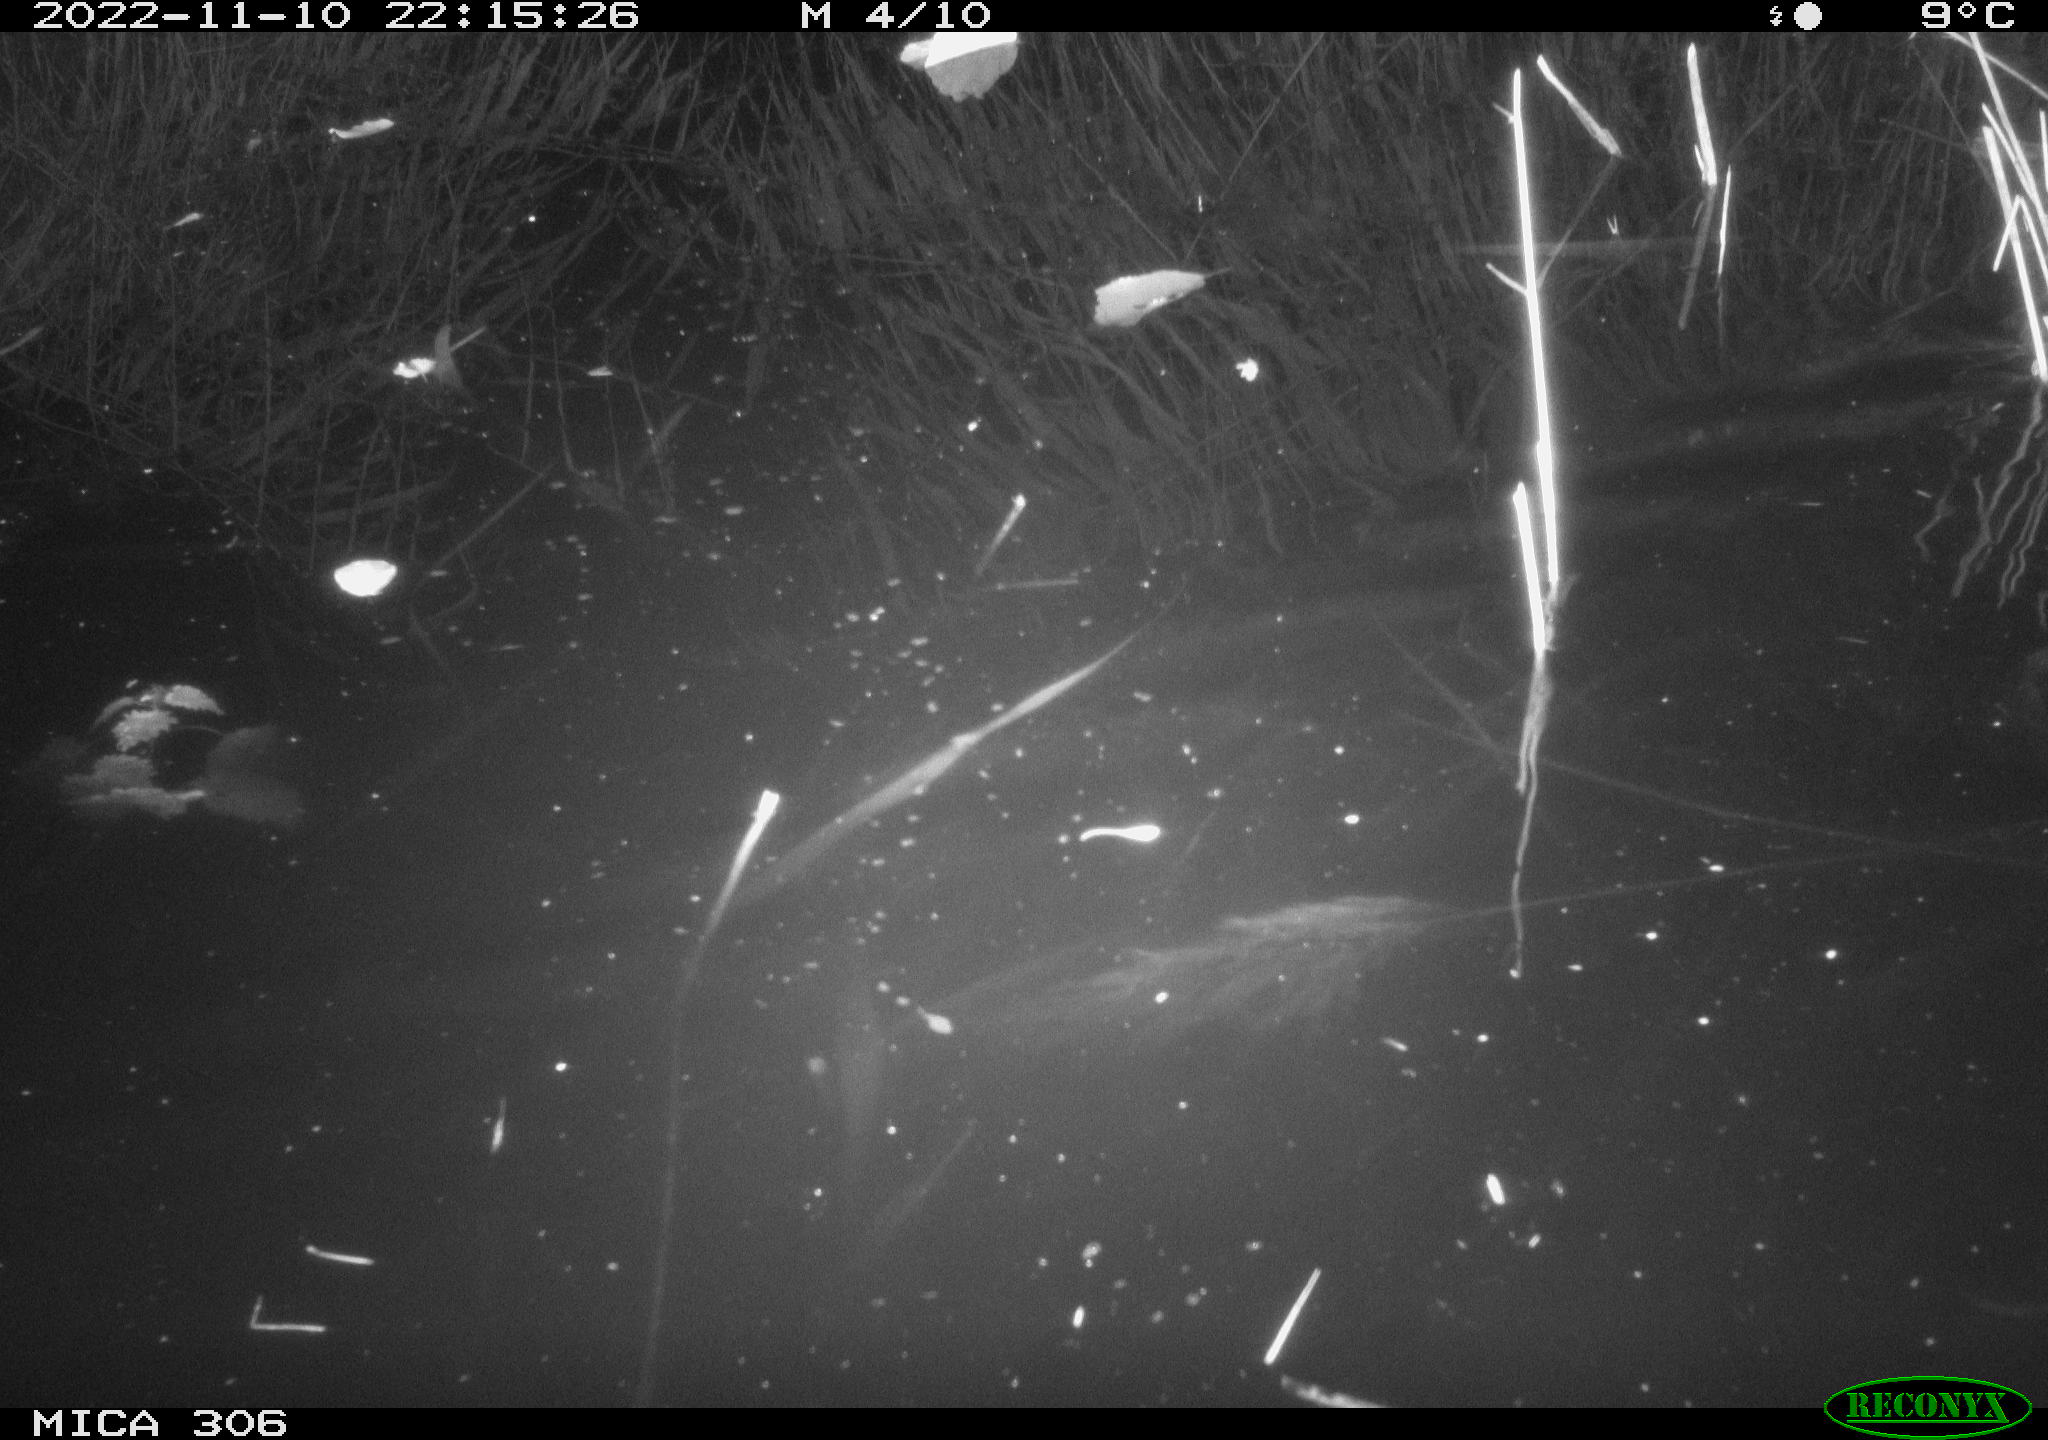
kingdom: Animalia
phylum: Chordata
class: Mammalia
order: Rodentia
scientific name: Rodentia
